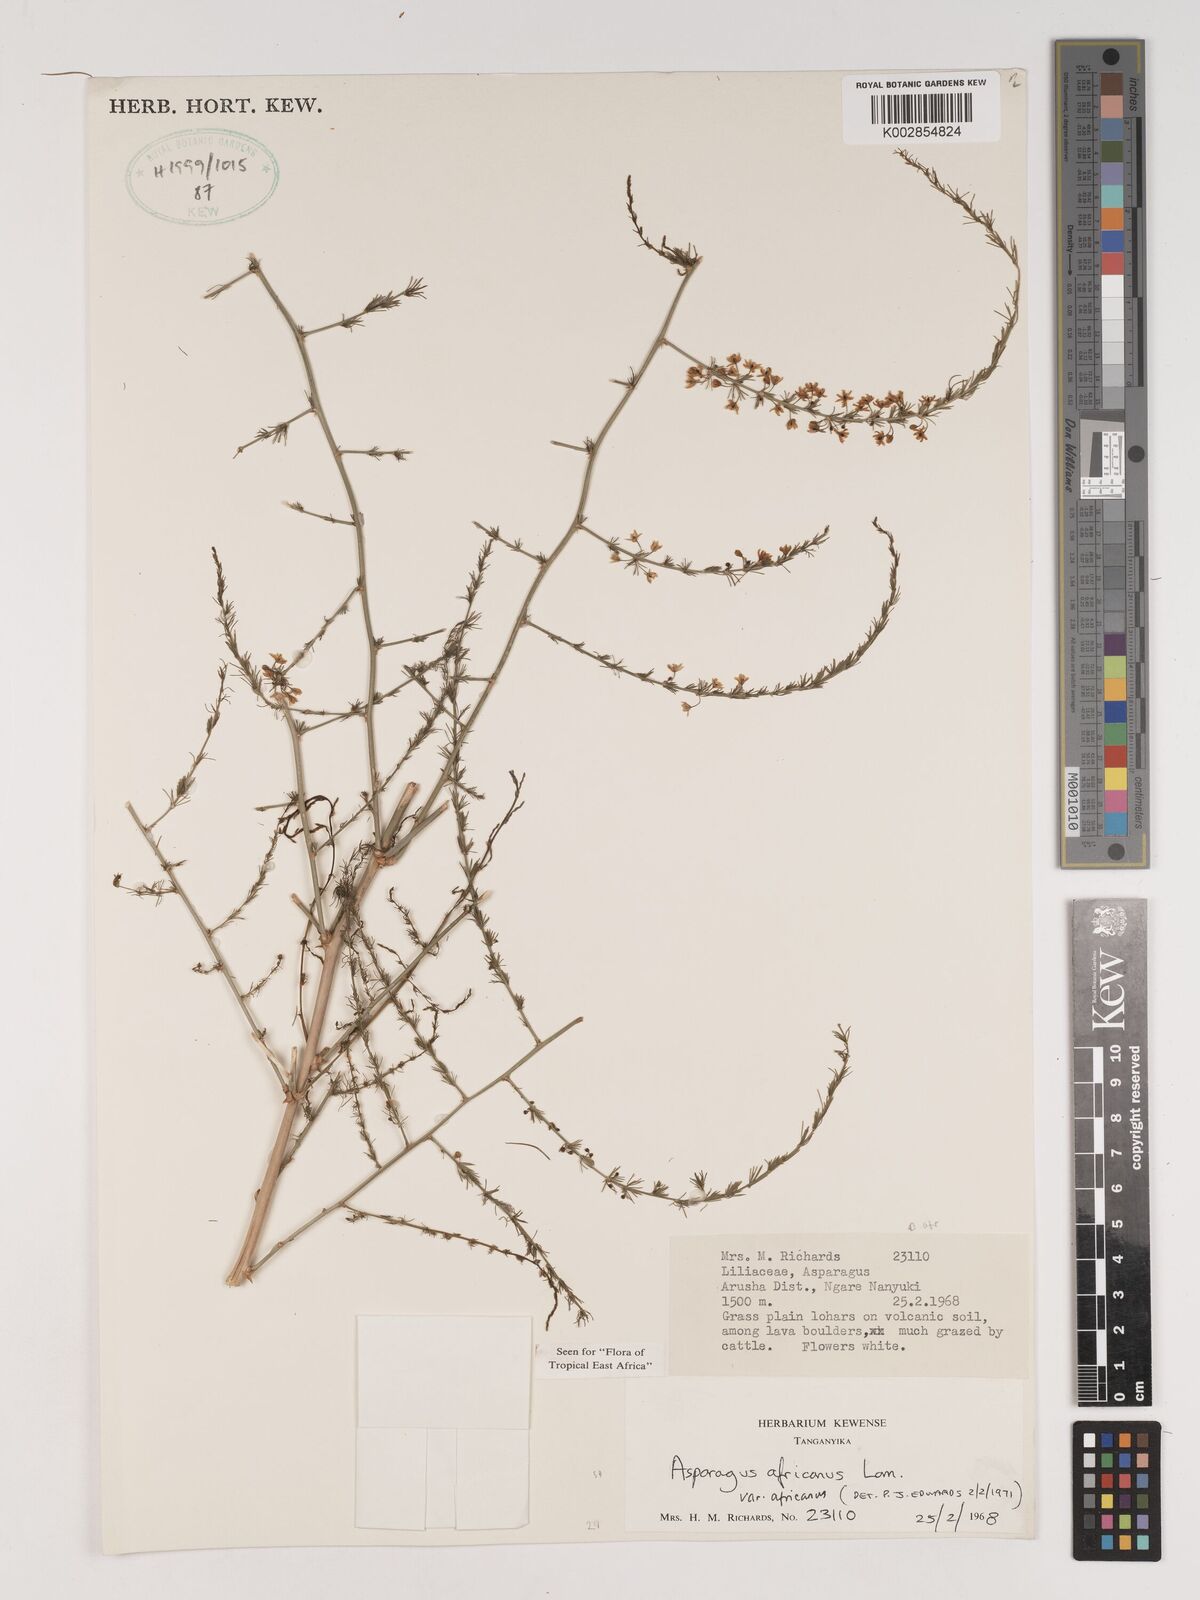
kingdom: Plantae
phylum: Tracheophyta
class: Liliopsida
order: Asparagales
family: Asparagaceae
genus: Asparagus
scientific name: Asparagus africanus
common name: Asparagus-fern
